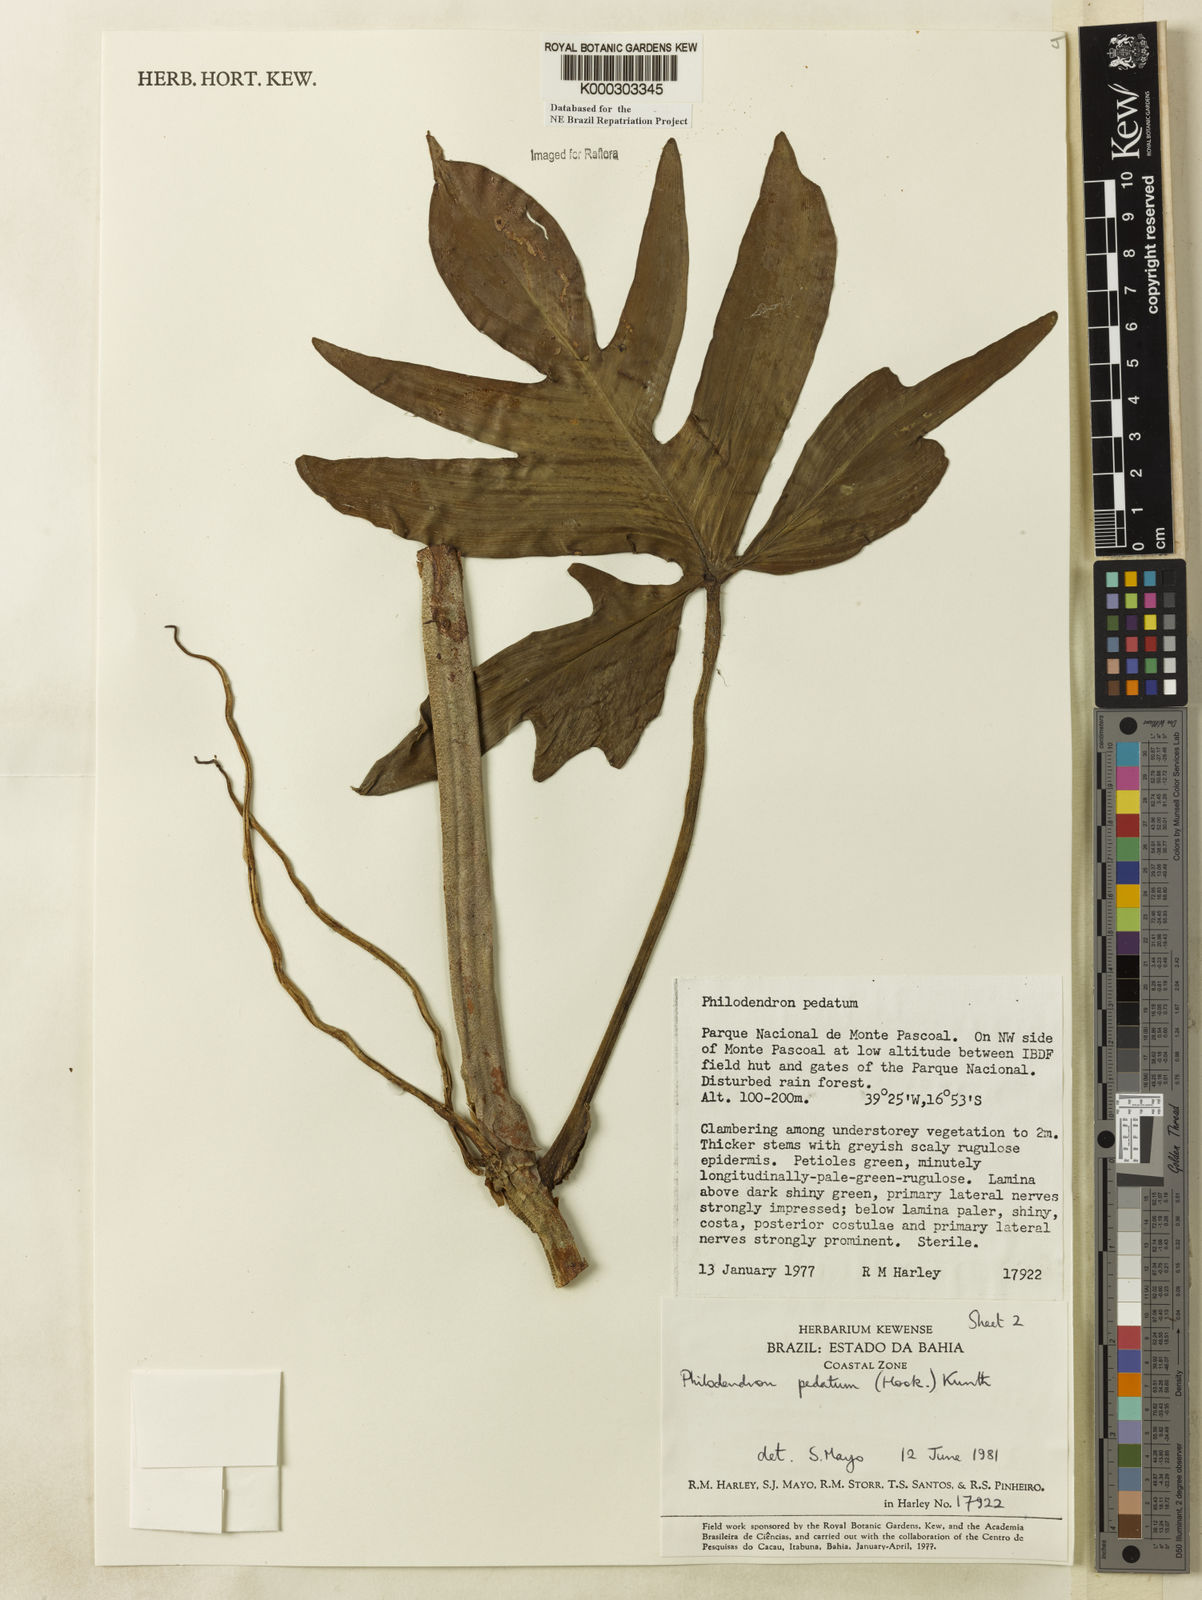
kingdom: Plantae
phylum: Tracheophyta
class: Liliopsida
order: Alismatales
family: Araceae
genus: Philodendron
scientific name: Philodendron pedatum
